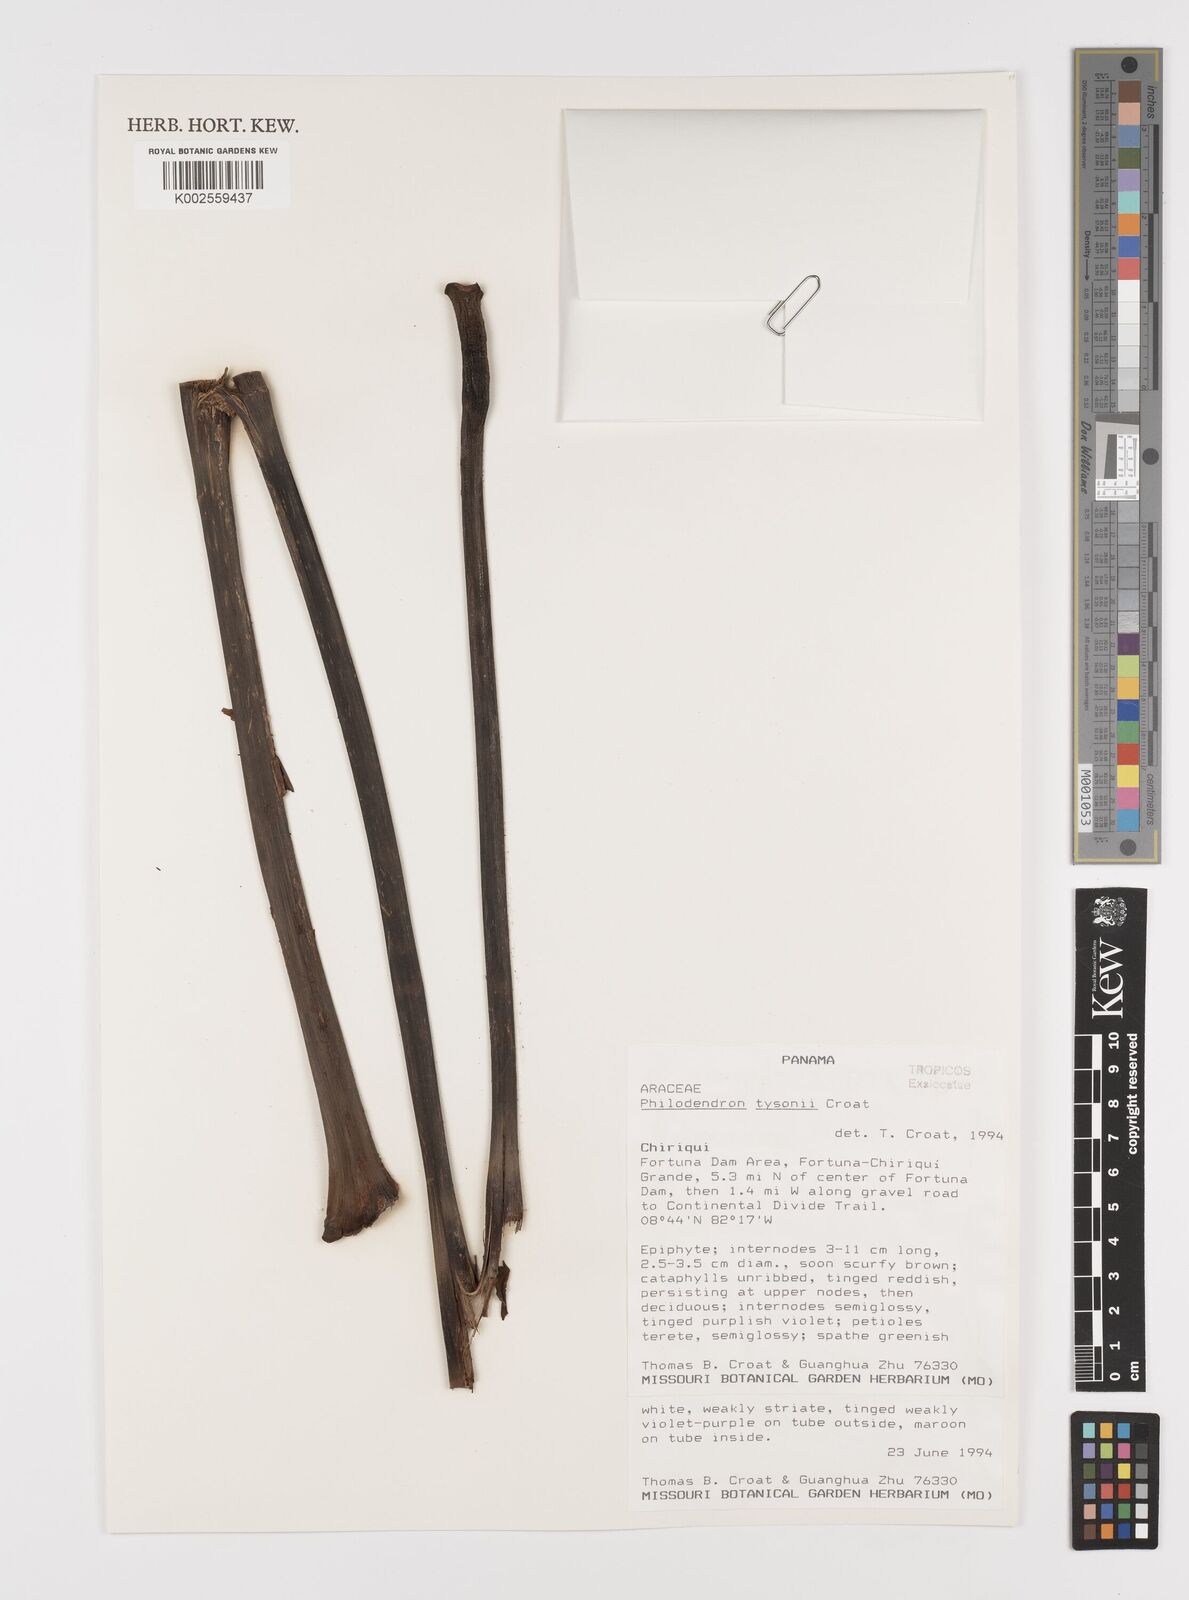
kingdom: Plantae
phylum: Tracheophyta
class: Liliopsida
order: Alismatales
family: Araceae
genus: Philodendron
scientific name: Philodendron tysonii
